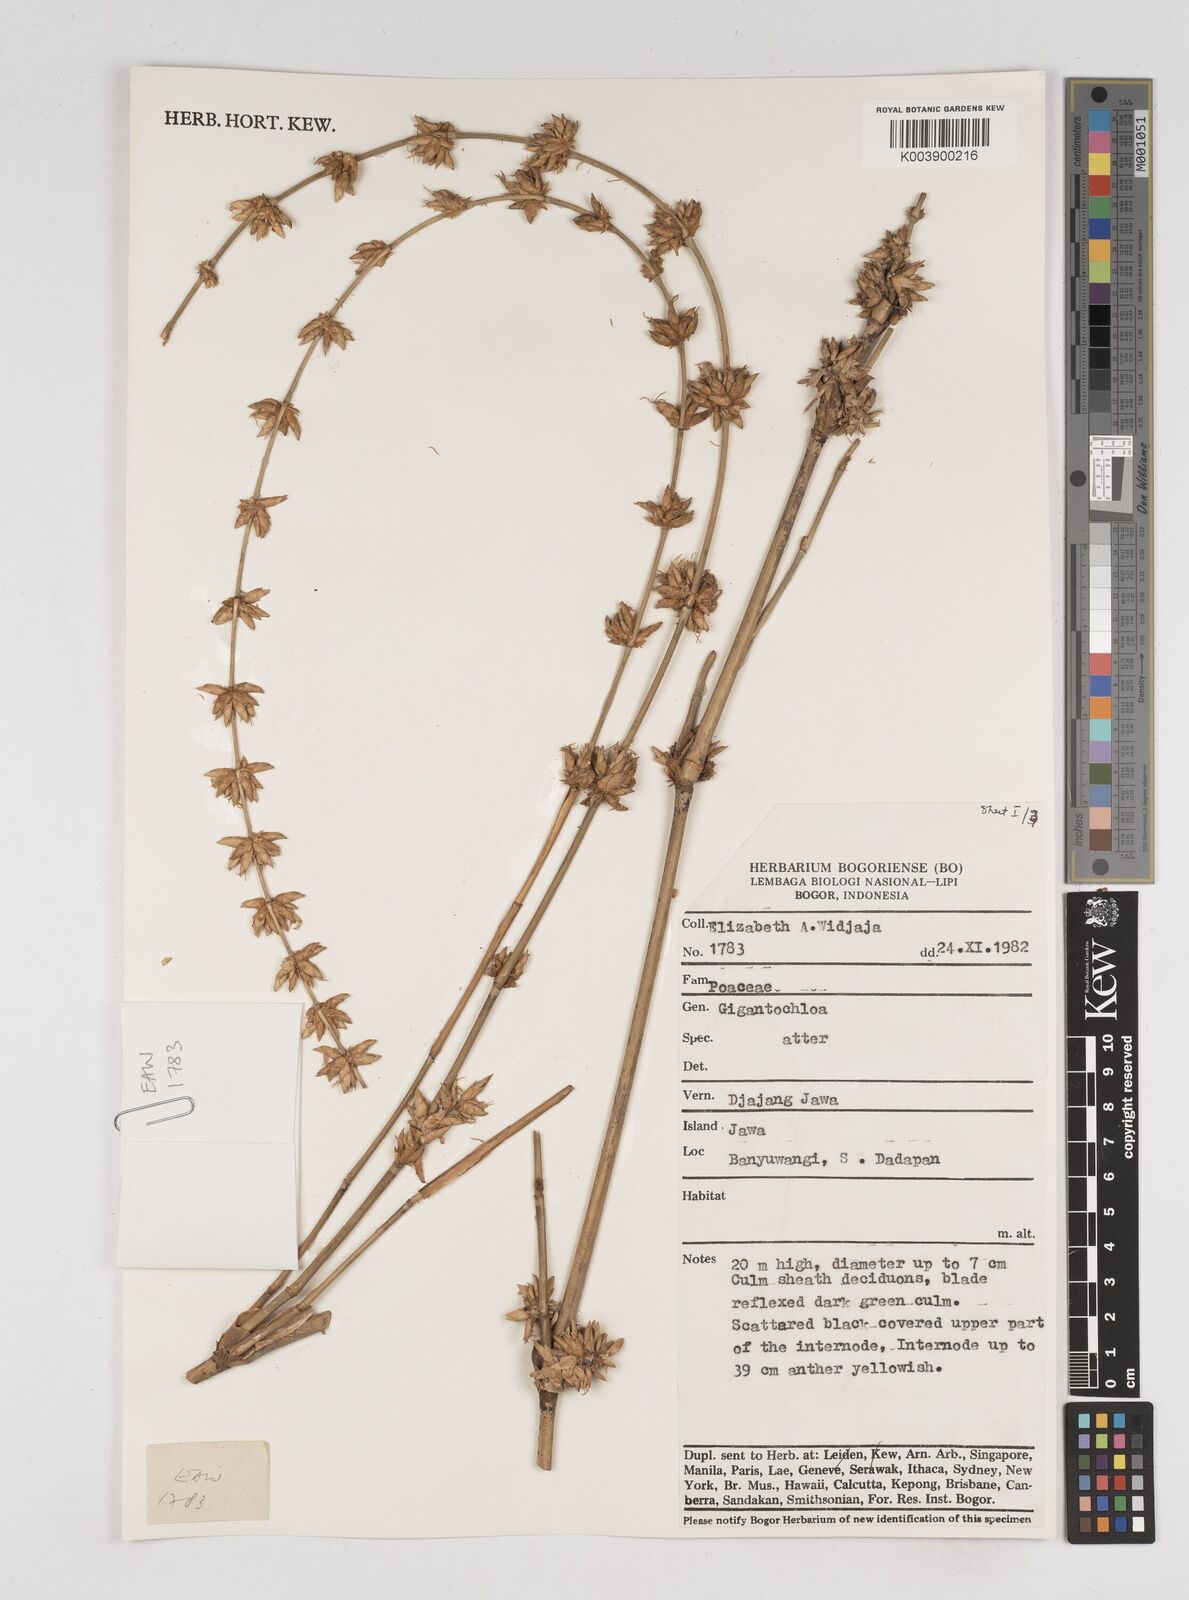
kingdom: Plantae
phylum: Tracheophyta
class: Liliopsida
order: Poales
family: Poaceae
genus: Gigantochloa
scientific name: Gigantochloa atter
